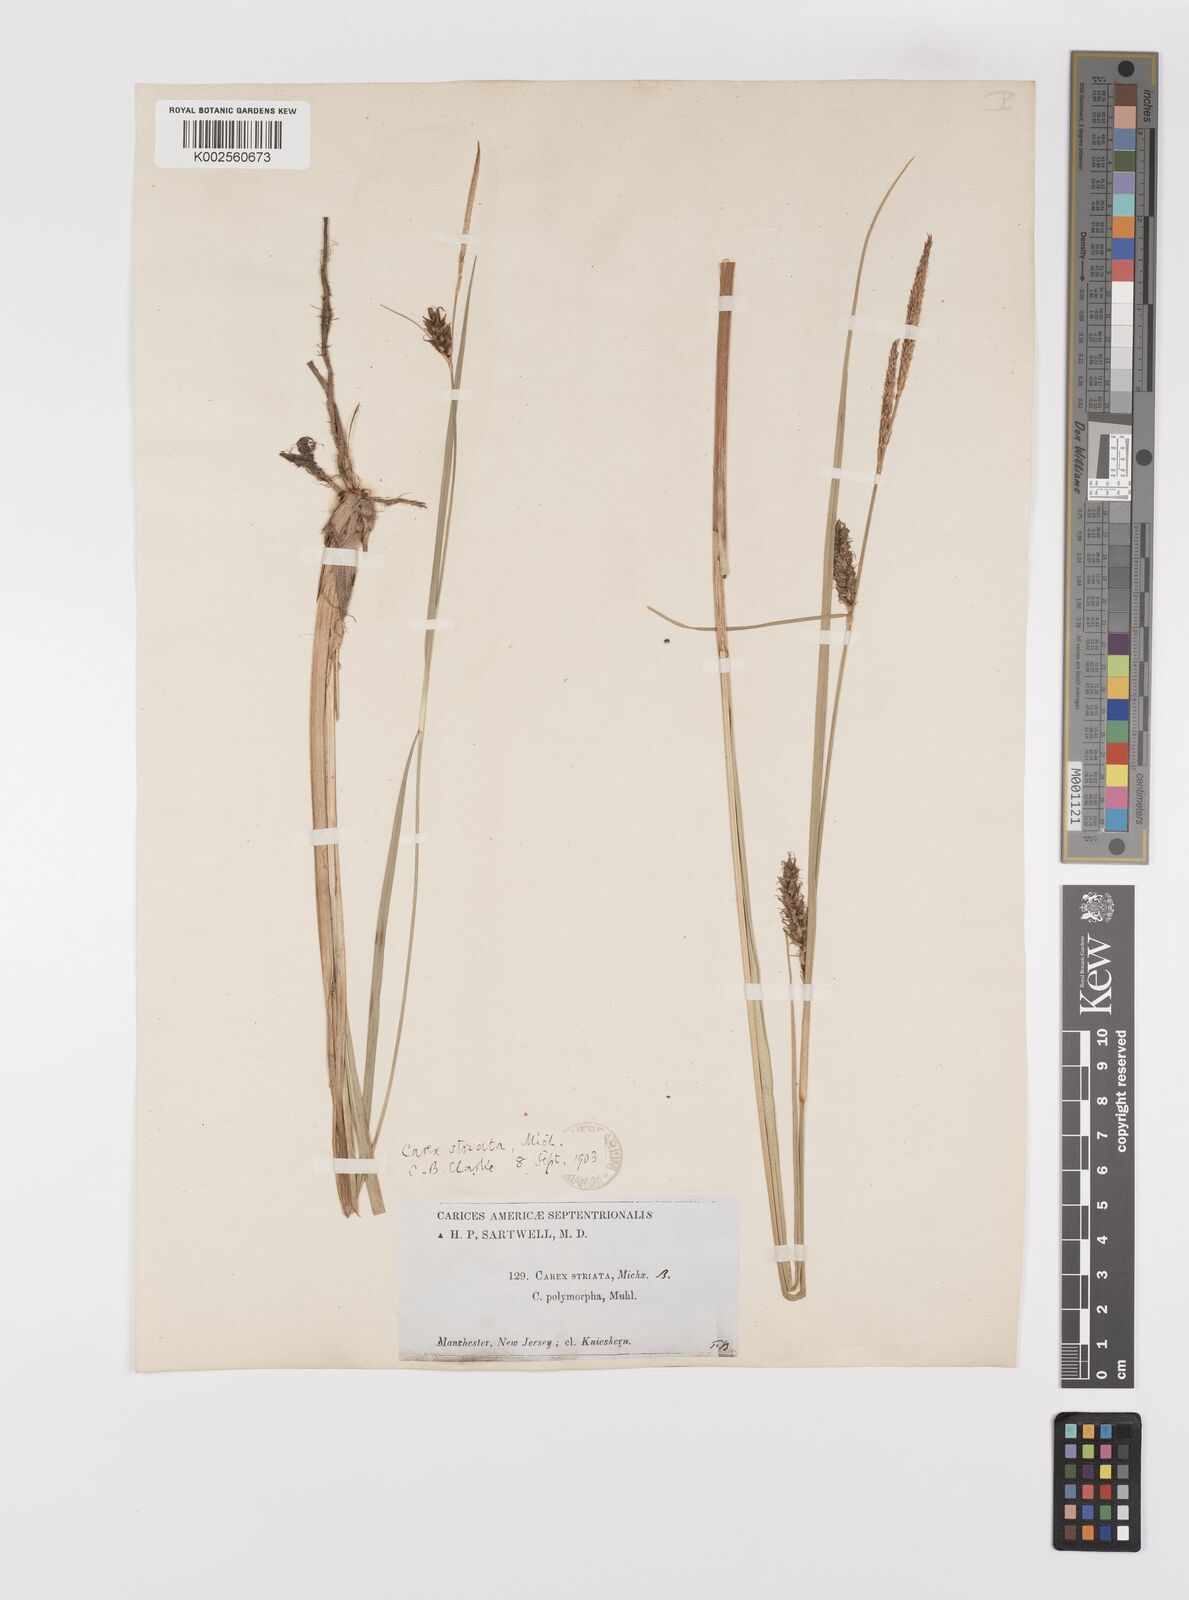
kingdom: Plantae
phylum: Tracheophyta
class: Liliopsida
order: Poales
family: Cyperaceae
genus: Carex
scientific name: Carex striata
